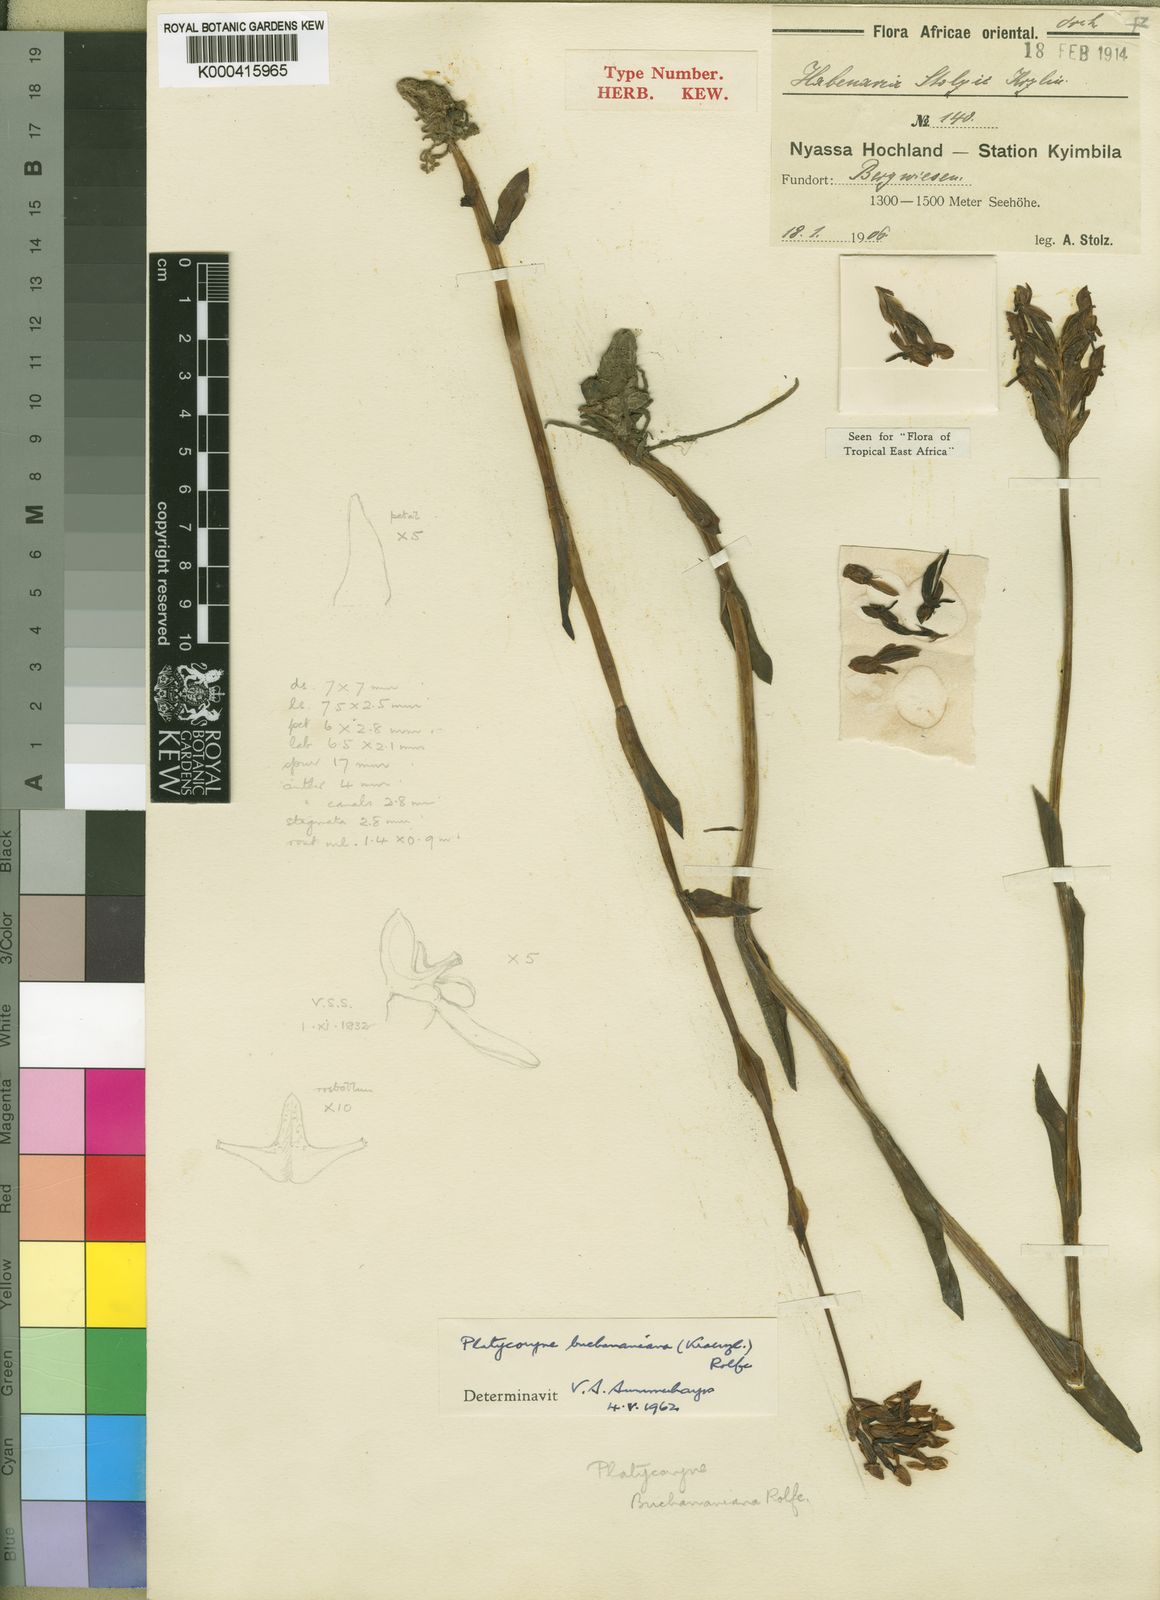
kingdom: Plantae
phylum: Tracheophyta
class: Liliopsida
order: Asparagales
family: Orchidaceae
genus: Platycoryne
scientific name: Platycoryne buchananiana
